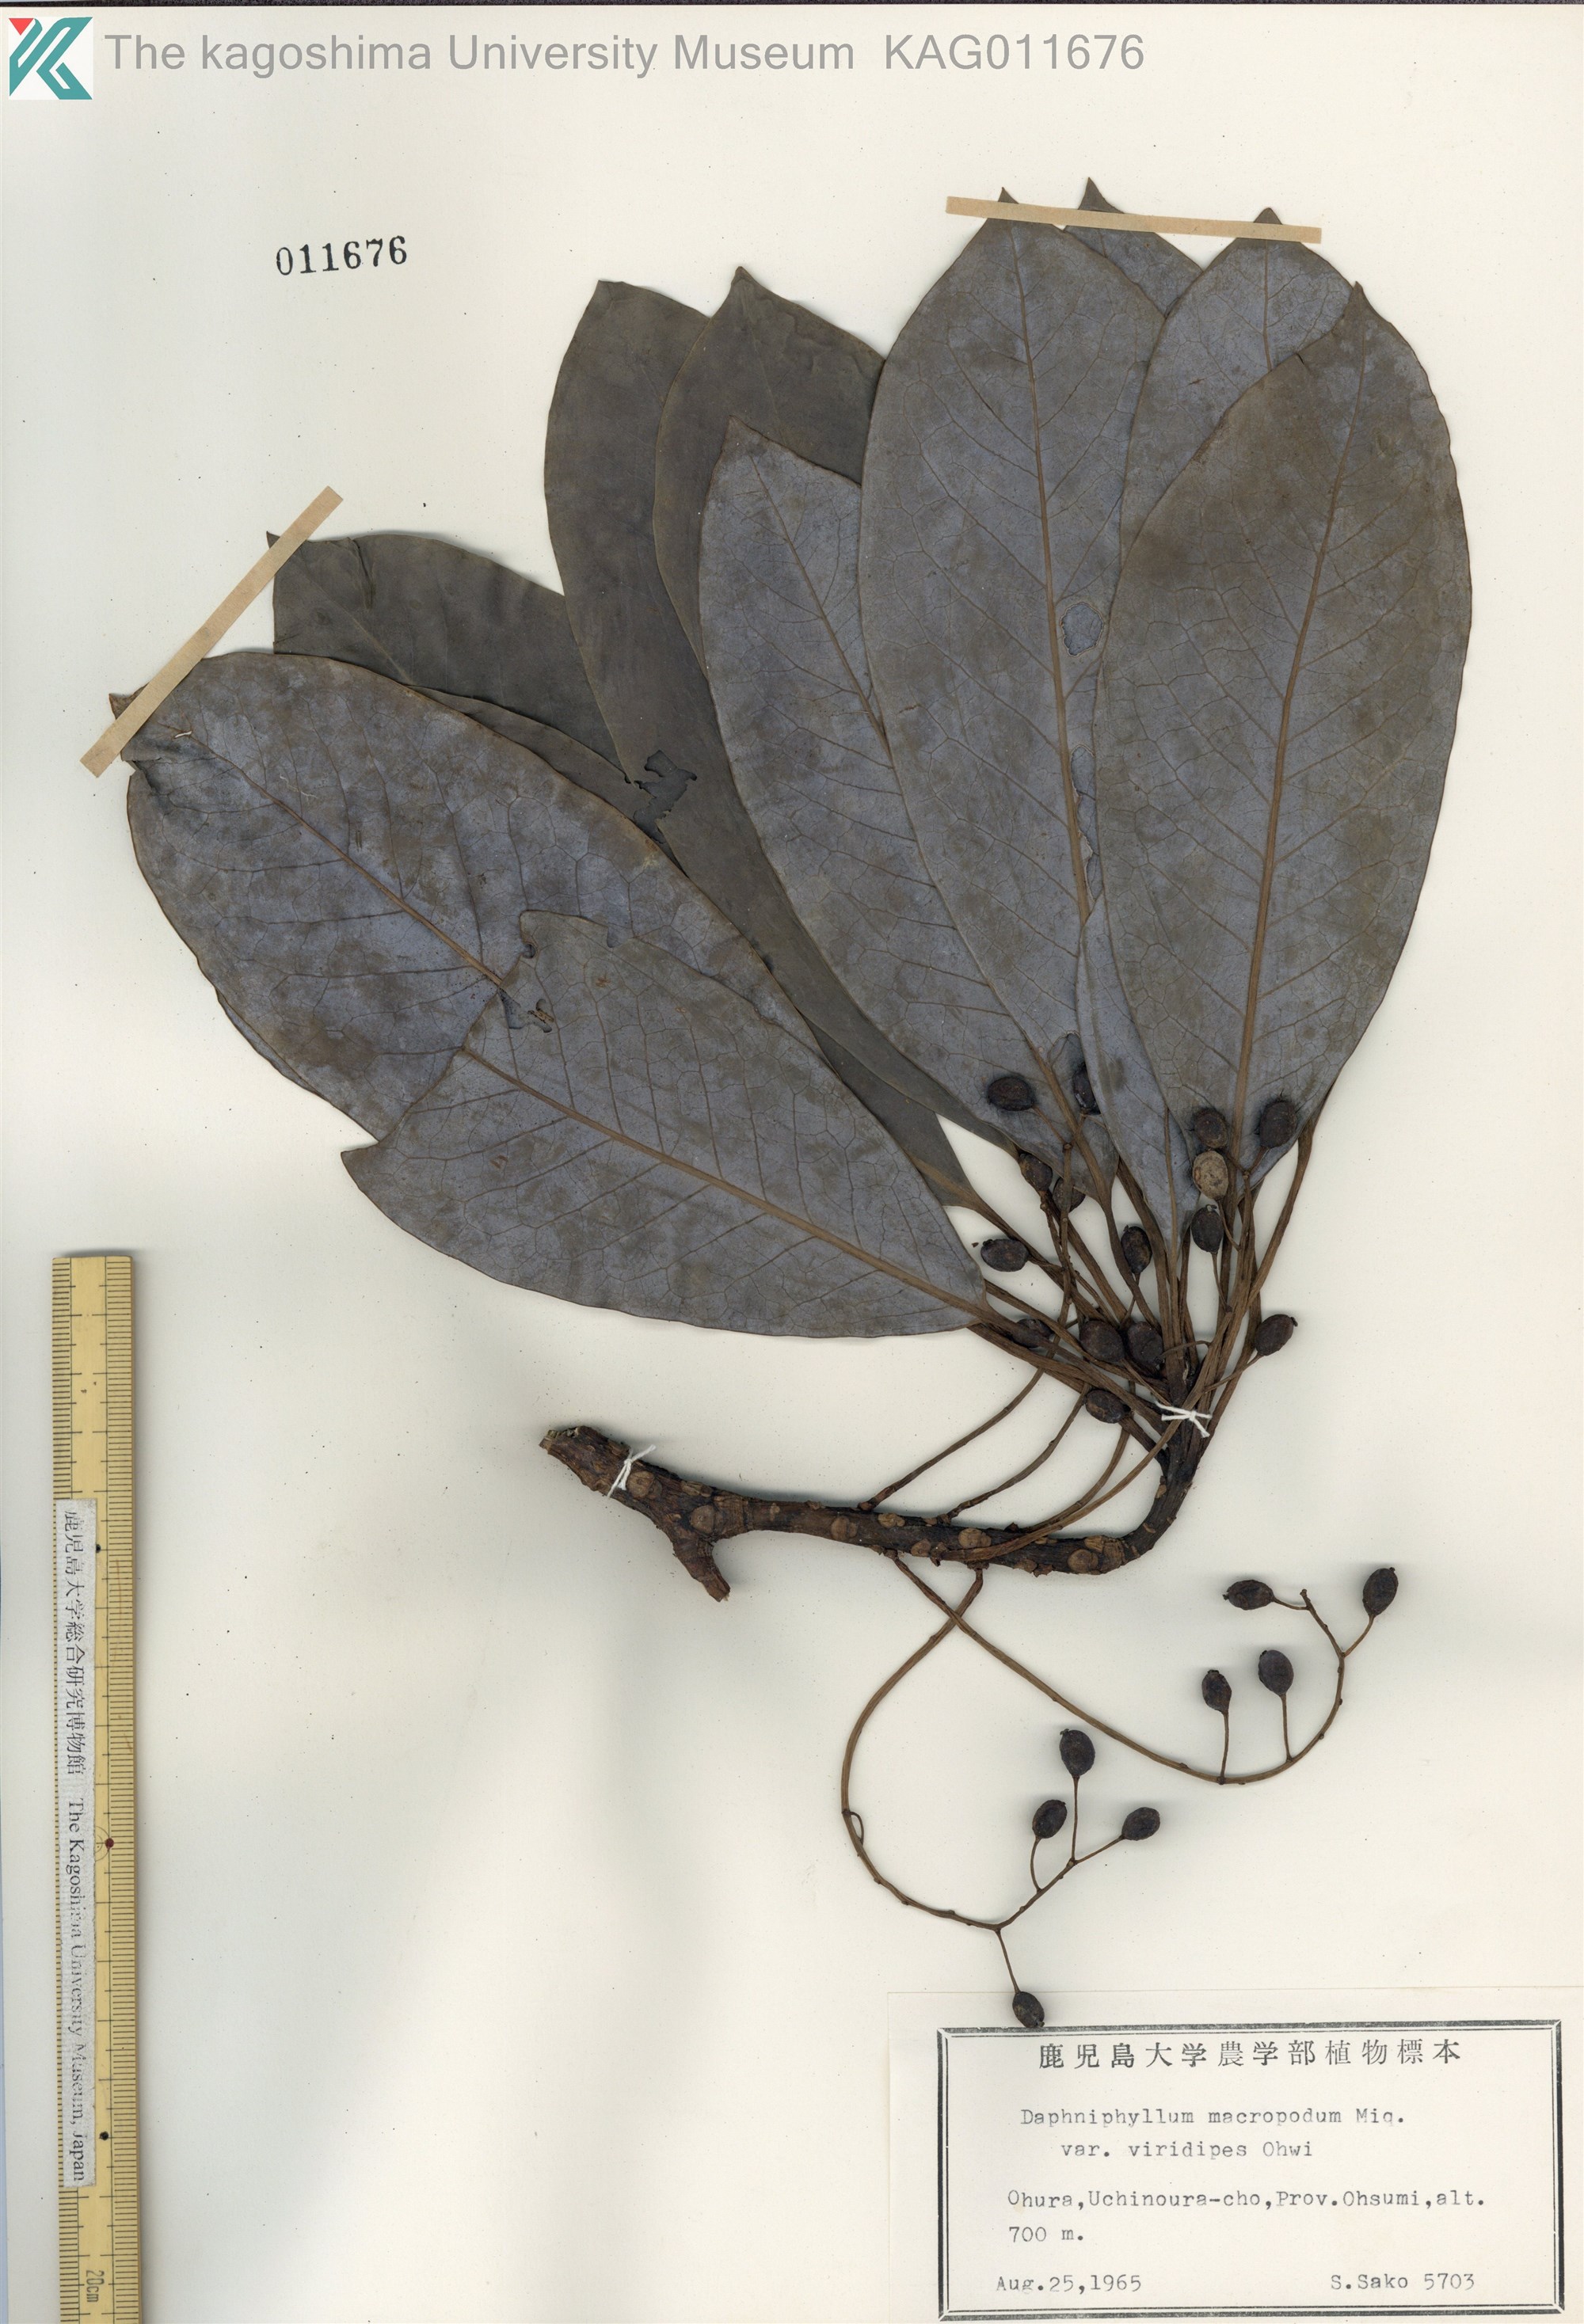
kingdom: Plantae
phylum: Tracheophyta
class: Magnoliopsida
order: Saxifragales
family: Daphniphyllaceae
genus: Daphniphyllum
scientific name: Daphniphyllum macropodum
